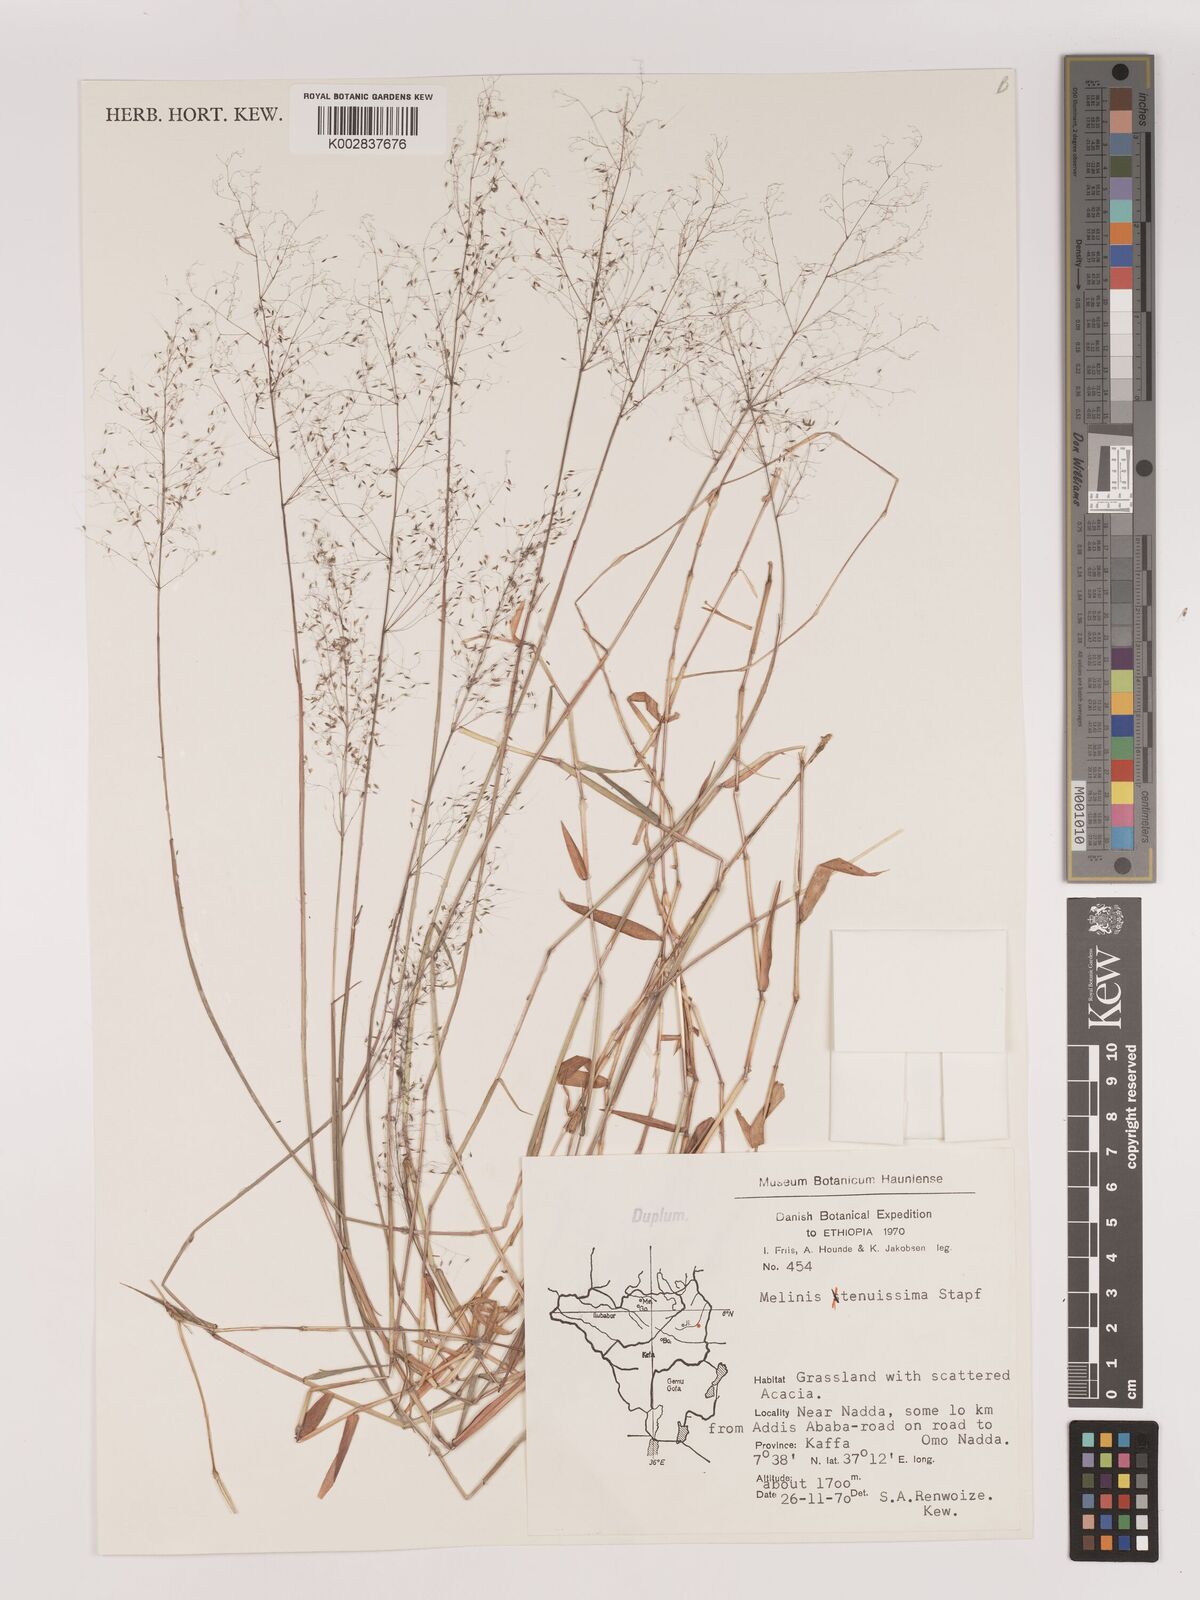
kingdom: Plantae
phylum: Tracheophyta
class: Liliopsida
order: Poales
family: Poaceae
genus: Melinis
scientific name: Melinis tenuissima
